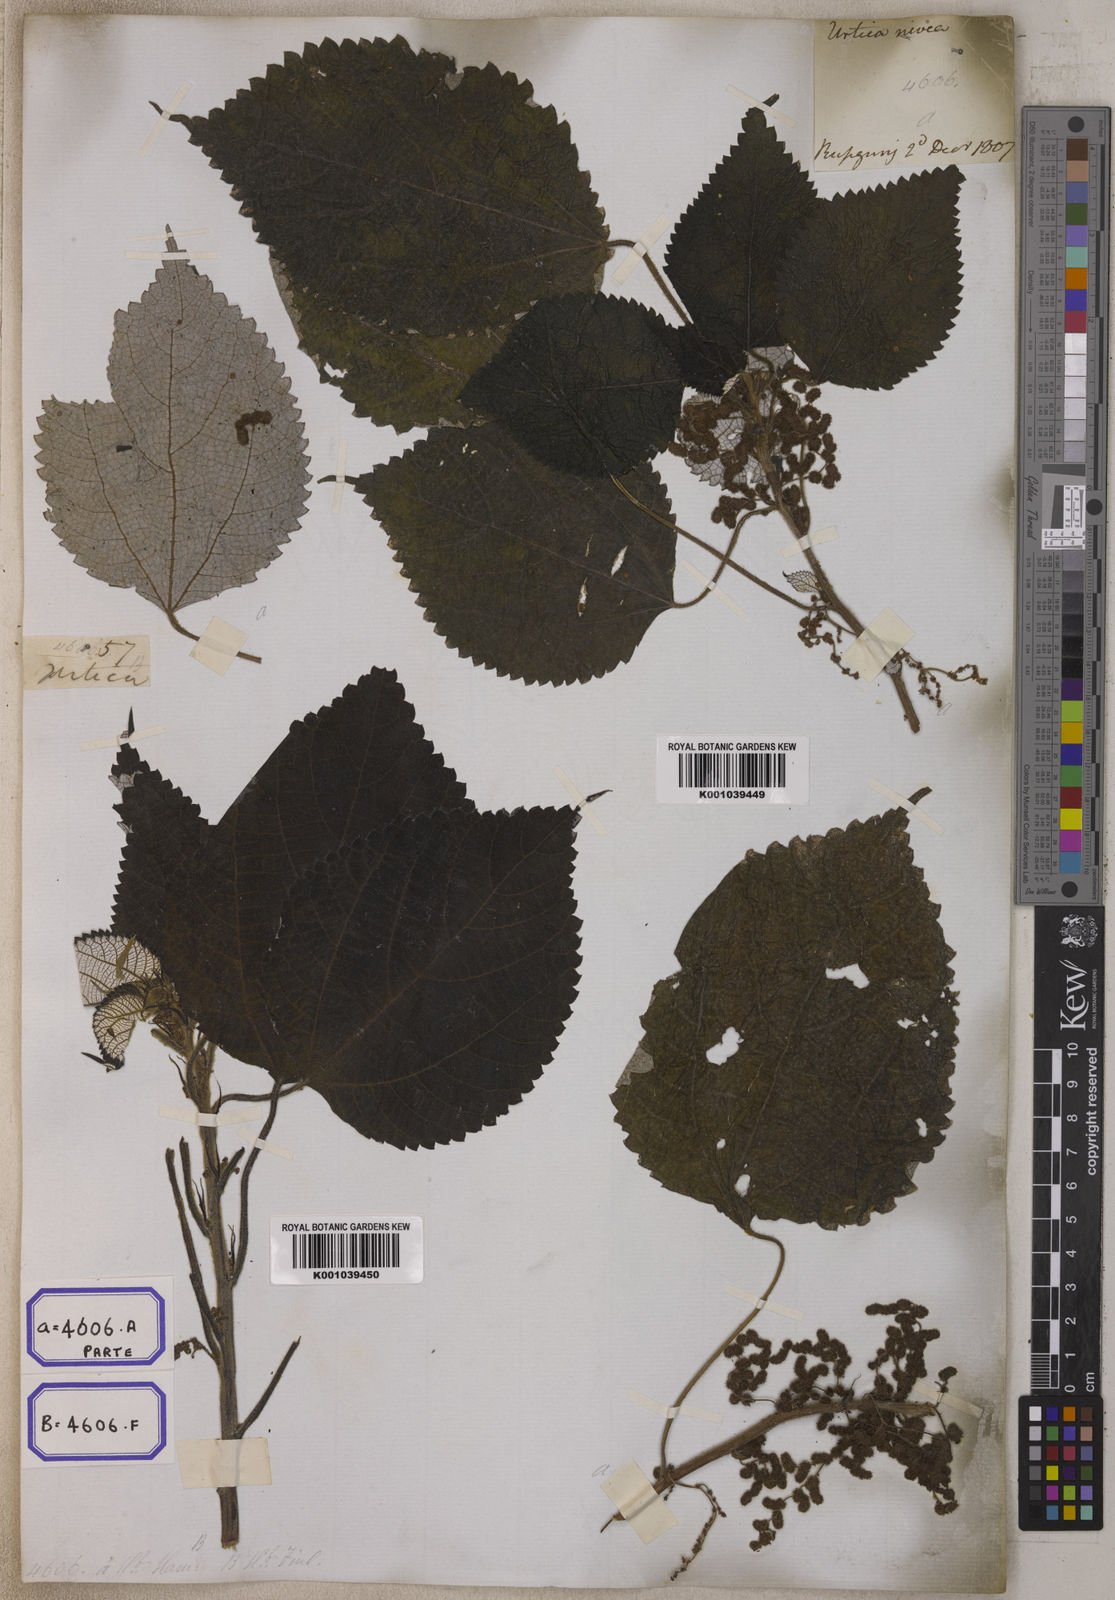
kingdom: Plantae
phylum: Tracheophyta
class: Magnoliopsida
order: Rosales
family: Urticaceae
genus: Boehmeria
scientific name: Boehmeria nivea
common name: Ramie chinese grass
